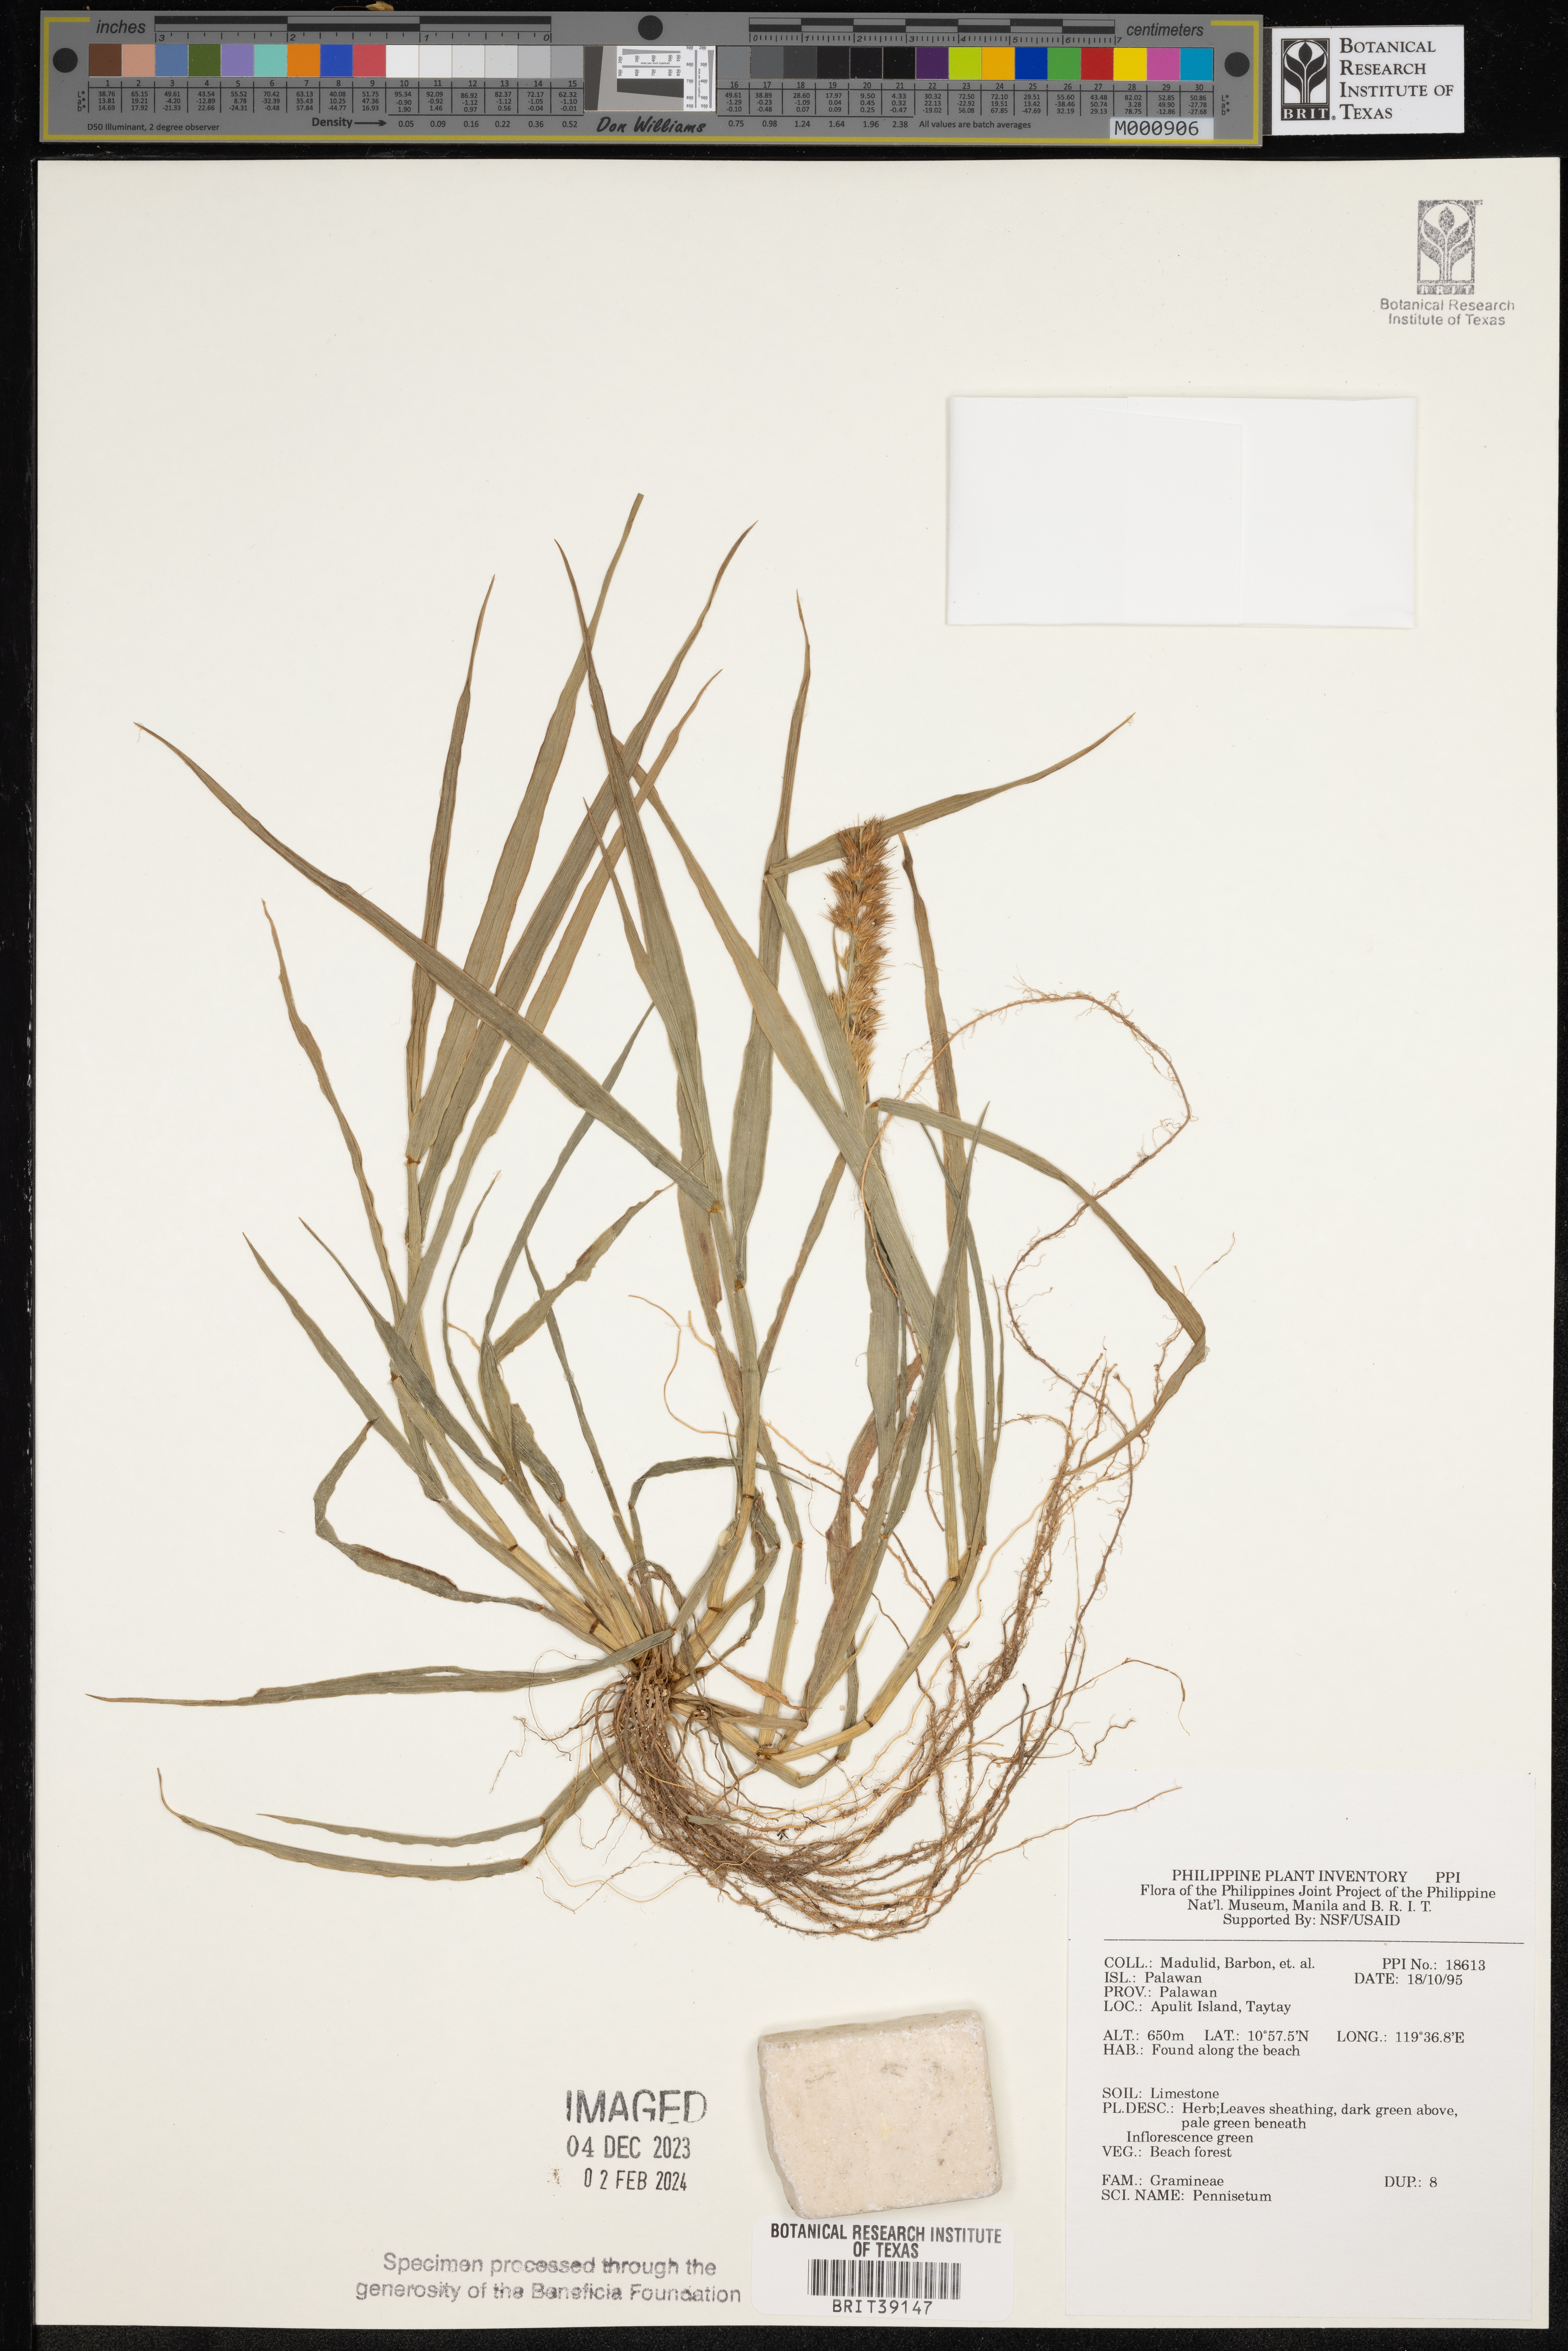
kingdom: Plantae
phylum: Tracheophyta
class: Liliopsida
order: Poales
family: Poaceae
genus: Cenchrus
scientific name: Cenchrus Pennisetum spec
